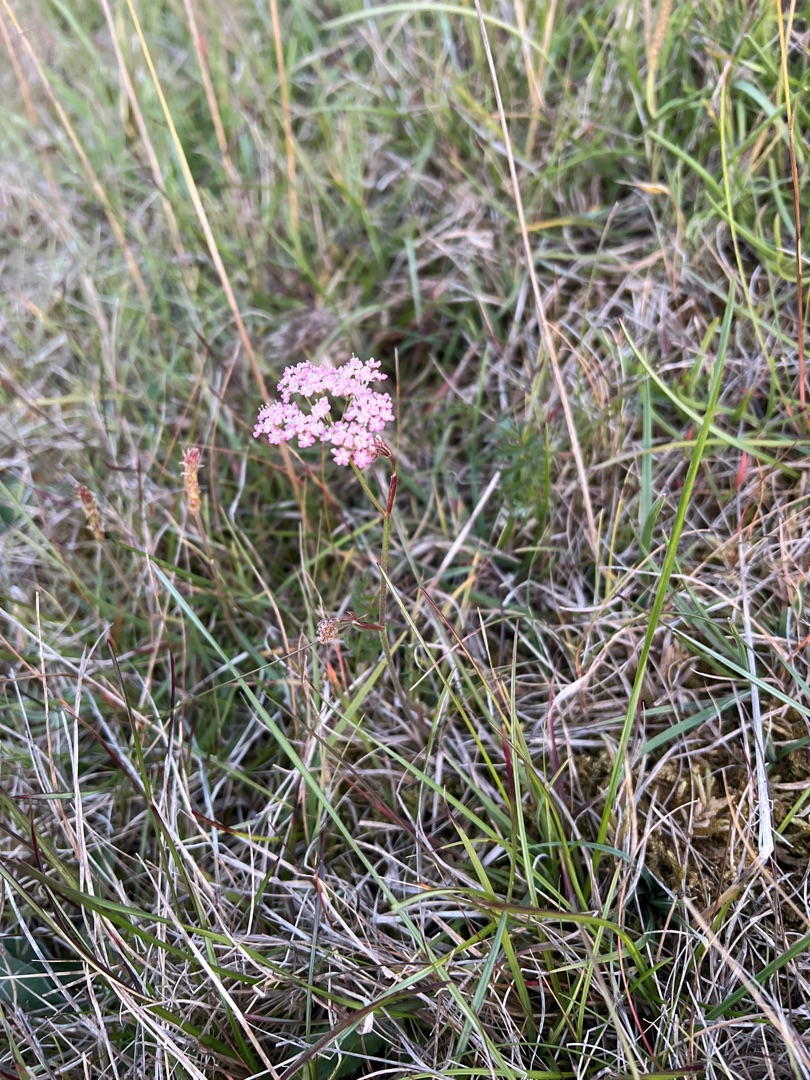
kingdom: Plantae
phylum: Tracheophyta
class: Magnoliopsida
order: Apiales
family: Apiaceae
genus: Pimpinella
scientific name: Pimpinella saxifraga
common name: Almindelig pimpinelle
